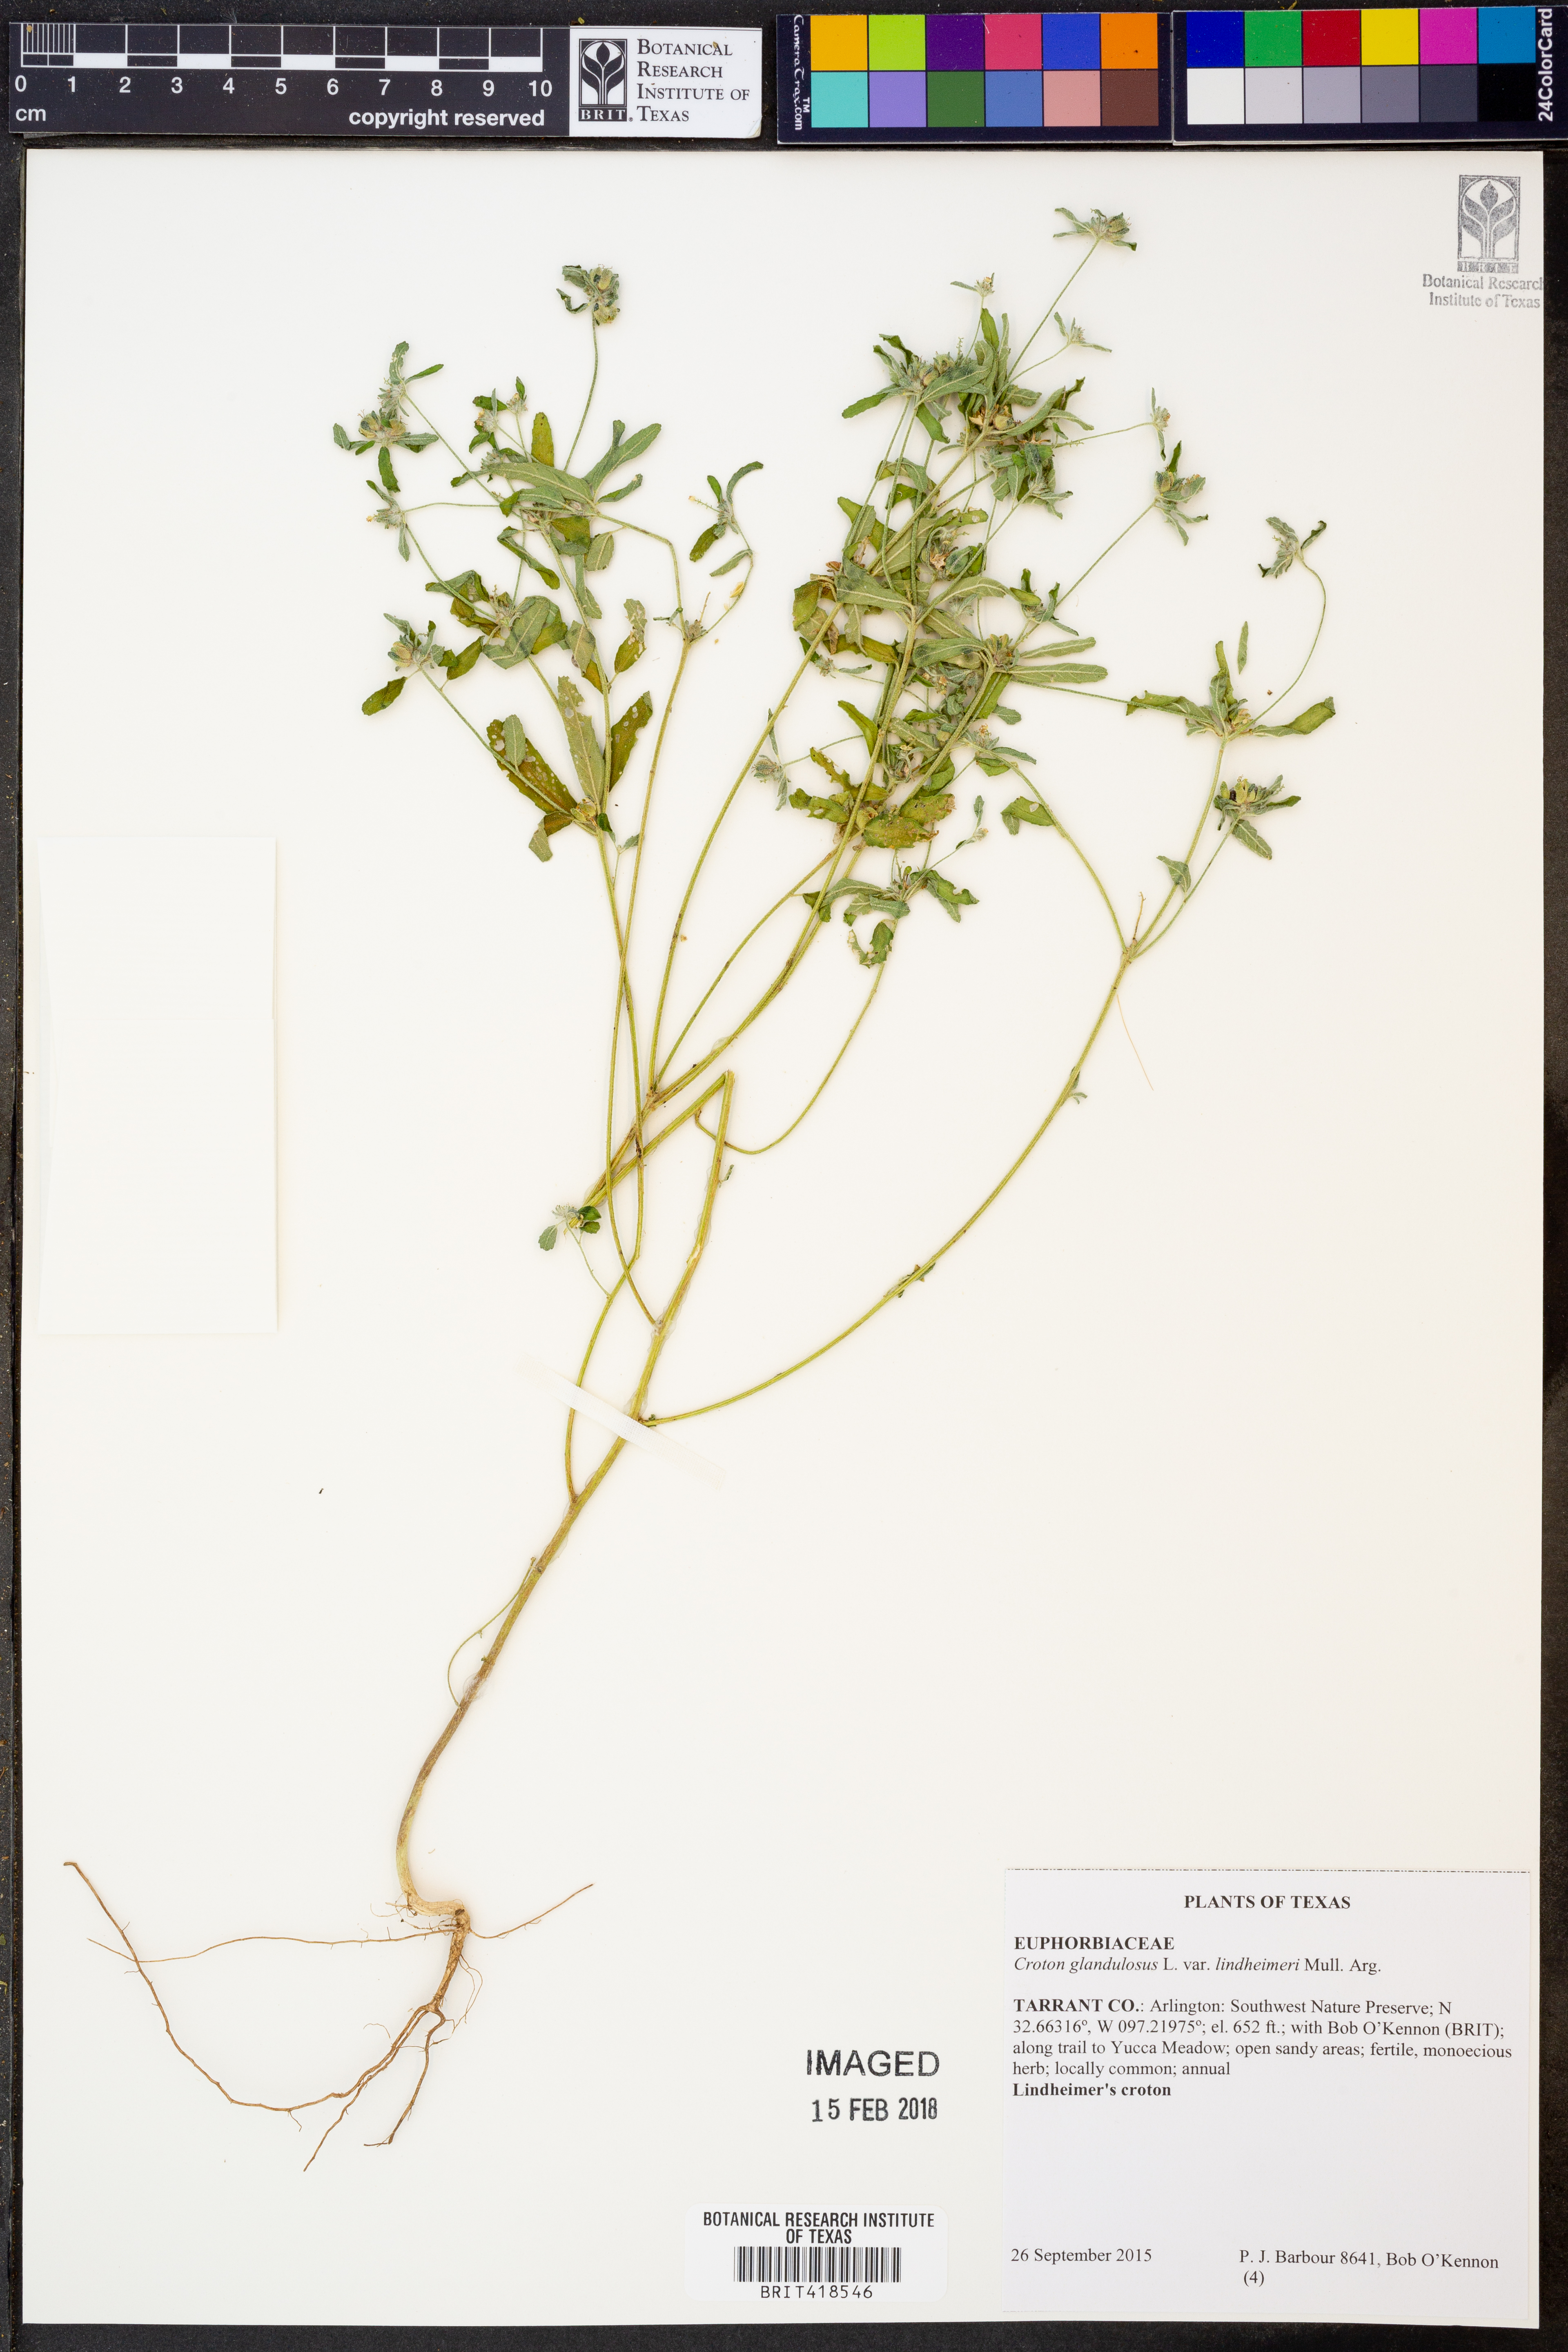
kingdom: Plantae
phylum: Tracheophyta
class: Magnoliopsida
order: Malpighiales
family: Euphorbiaceae
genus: Croton
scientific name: Croton glandulosus
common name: Tropic croton
